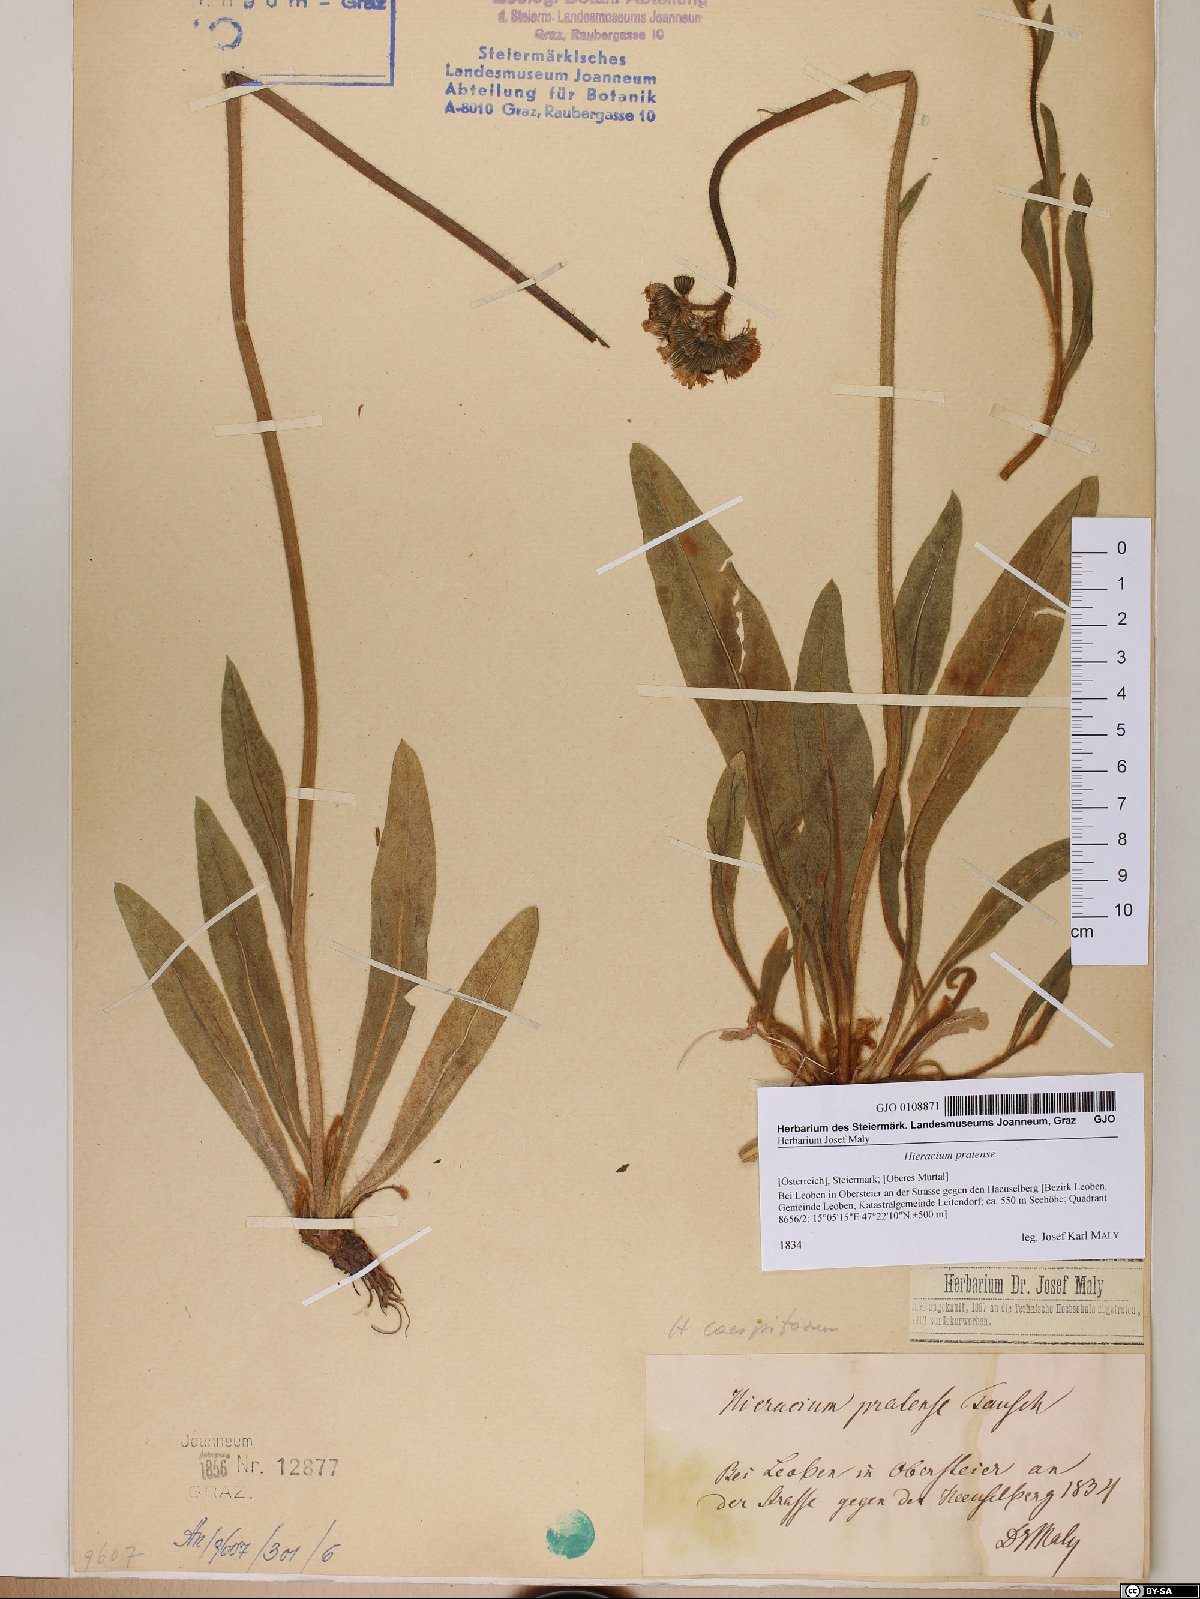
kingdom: Plantae
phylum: Tracheophyta
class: Magnoliopsida
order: Asterales
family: Asteraceae
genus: Pilosella
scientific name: Pilosella caespitosa
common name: Yellow fox-and-cubs
